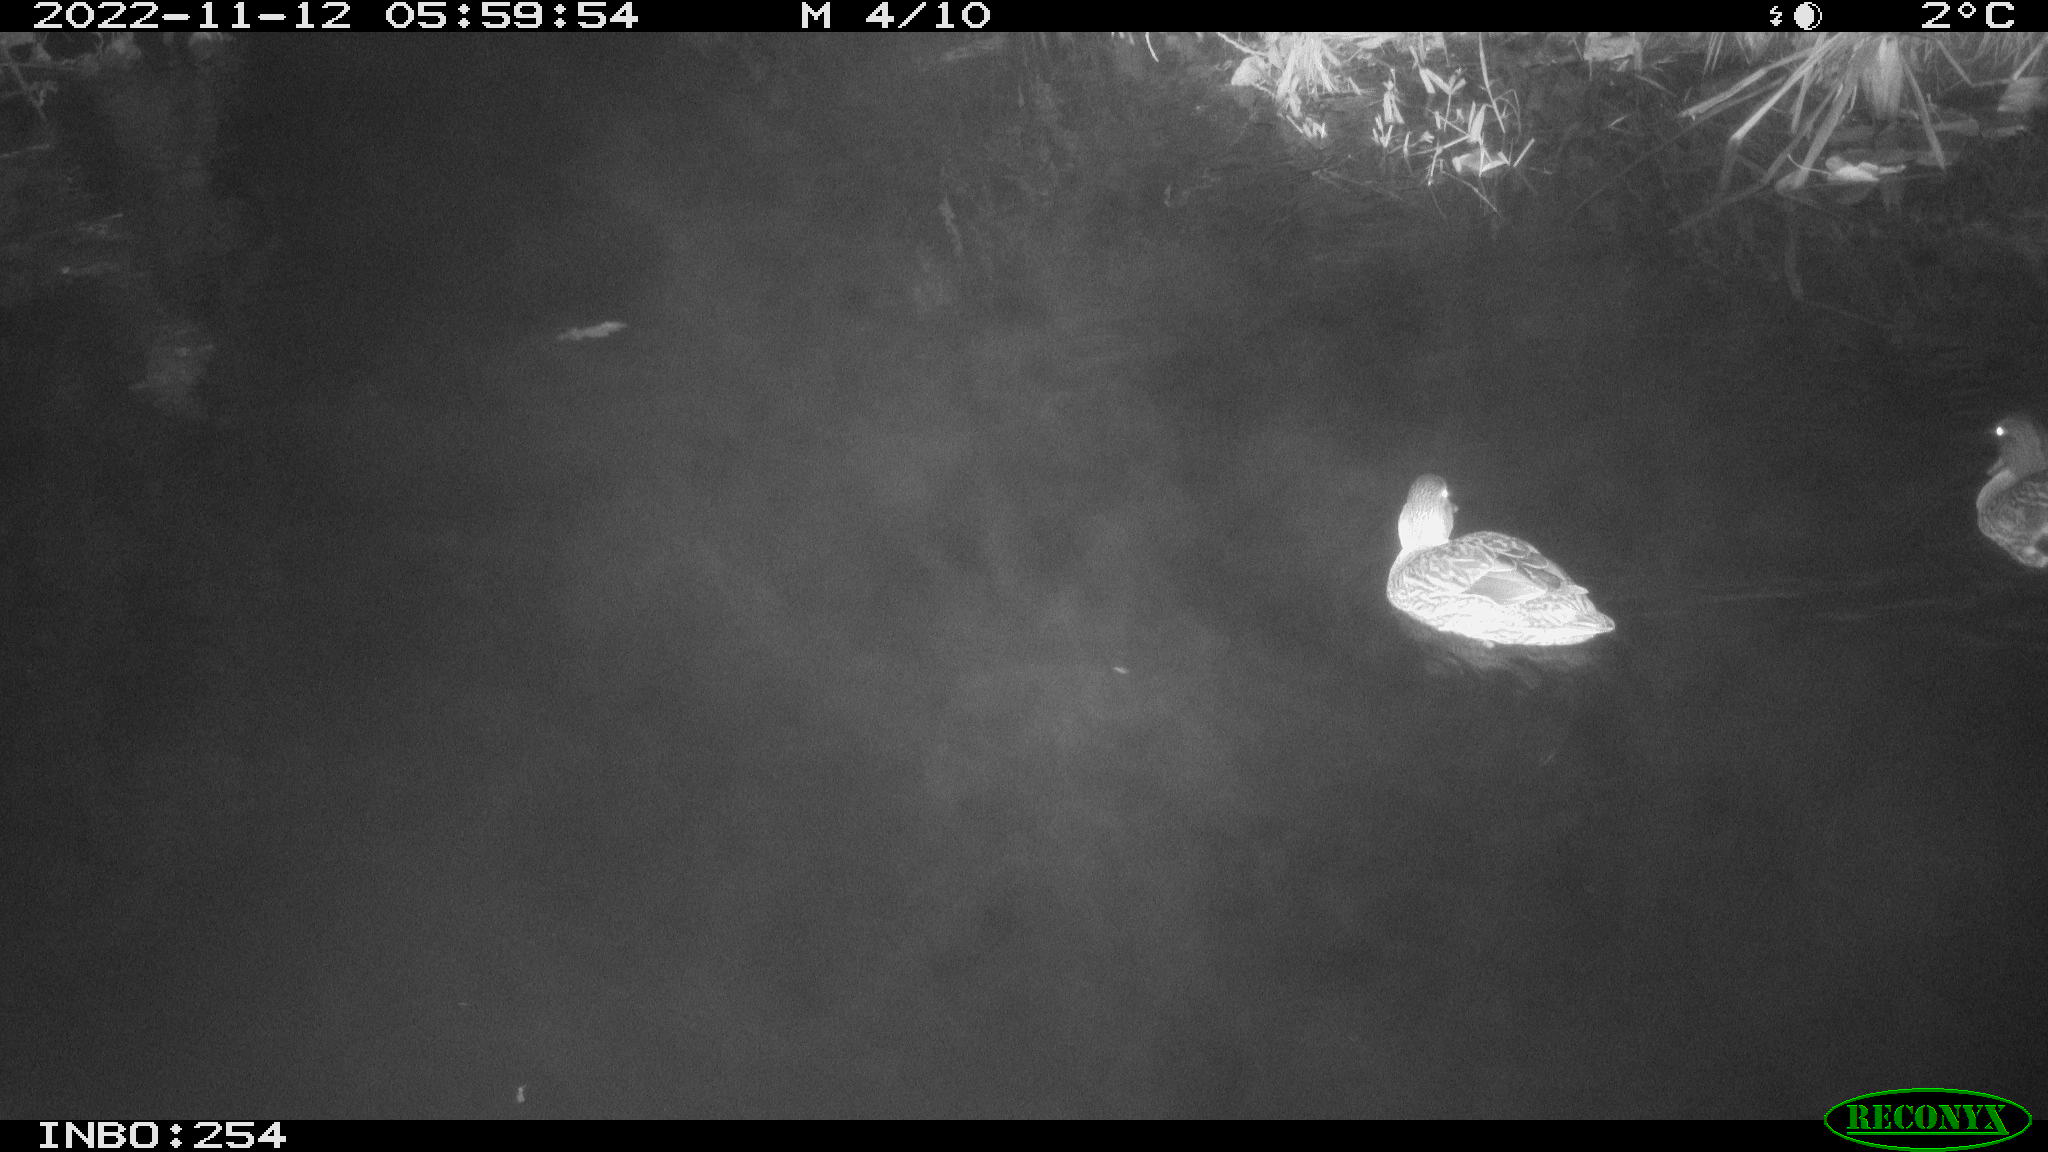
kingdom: Animalia
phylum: Chordata
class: Aves
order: Anseriformes
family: Anatidae
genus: Anas
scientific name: Anas
